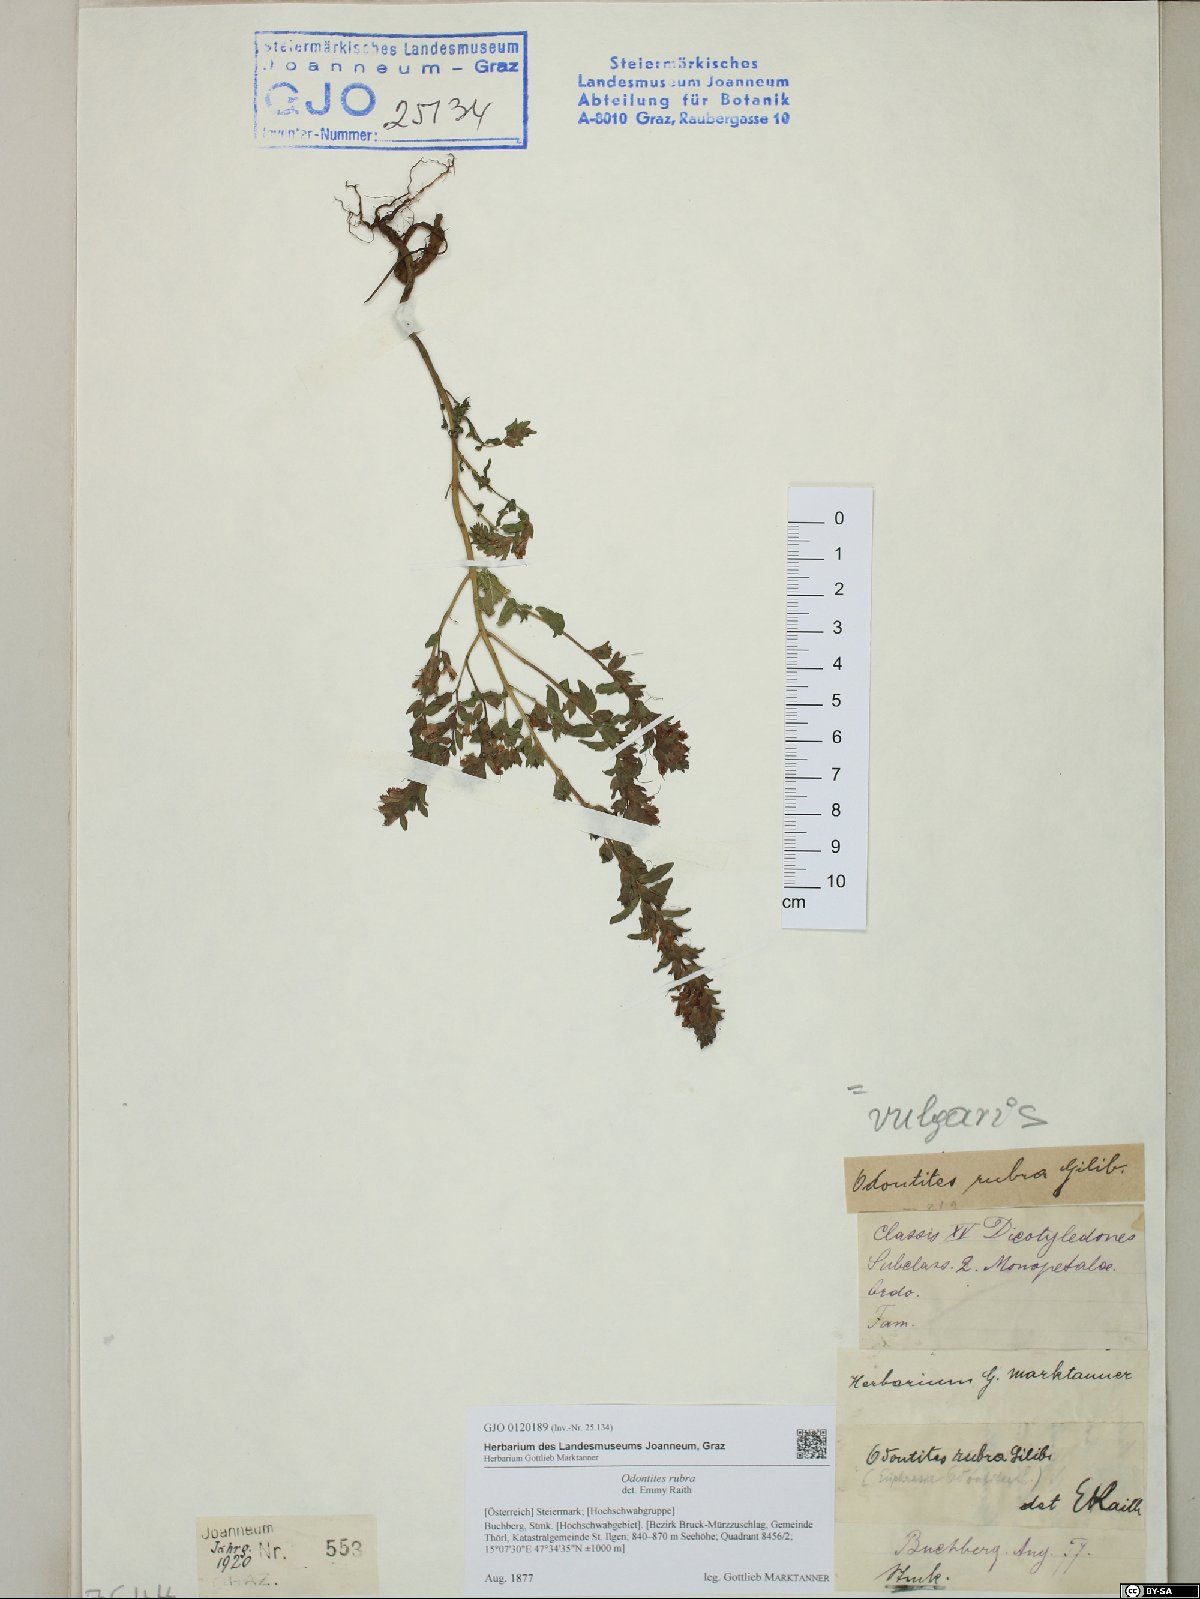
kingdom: Plantae
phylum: Tracheophyta
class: Magnoliopsida
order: Lamiales
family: Orobanchaceae
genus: Odontites
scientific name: Odontites vulgaris
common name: Broomrape
